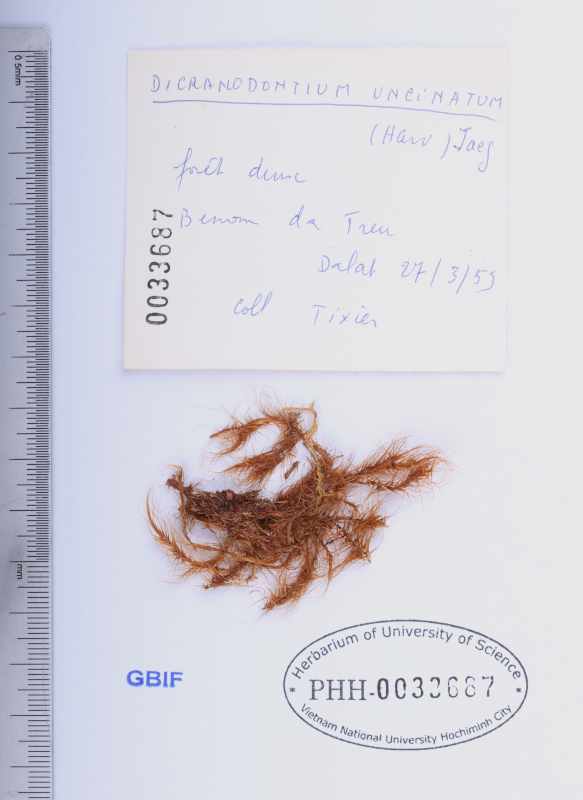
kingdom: Plantae
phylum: Bryophyta
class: Bryopsida
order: Dicranales
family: Leucobryaceae
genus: Dicranodontium
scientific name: Dicranodontium uncinatum
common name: Curve-leaved bow-moss
